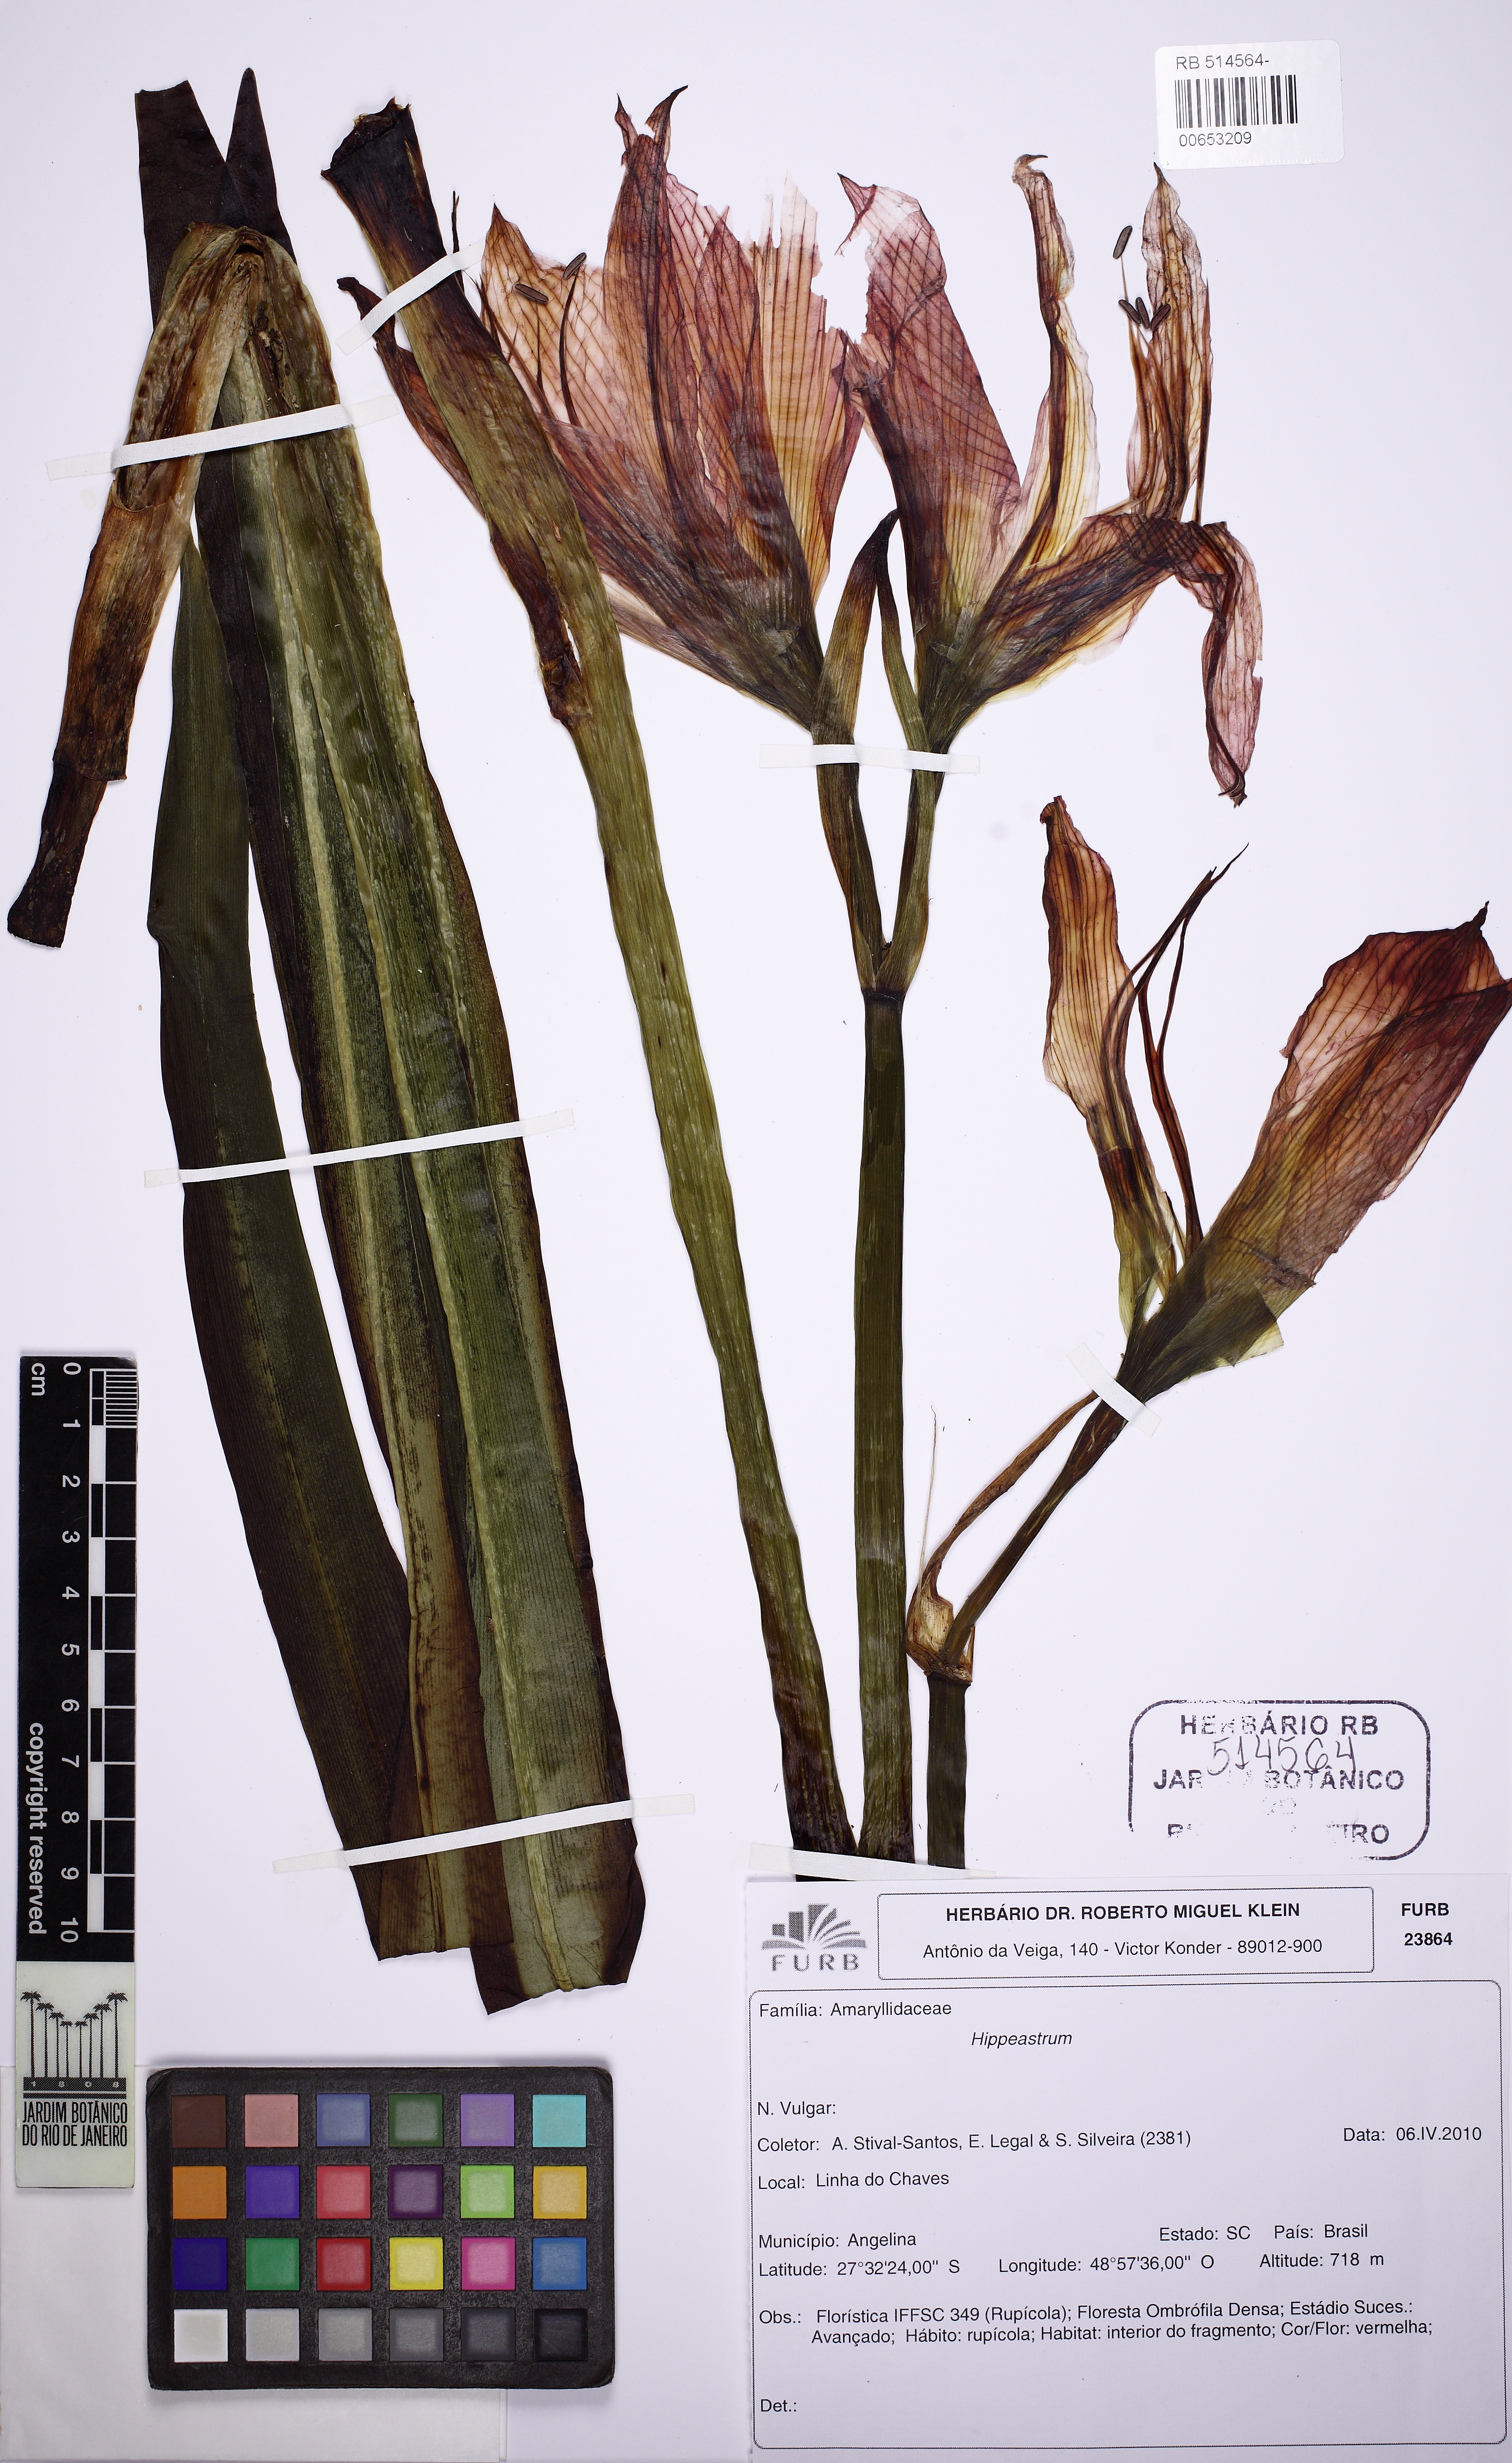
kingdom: Plantae
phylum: Tracheophyta
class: Liliopsida
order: Asparagales
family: Amaryllidaceae
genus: Hippeastrum
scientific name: Hippeastrum glaucescens
